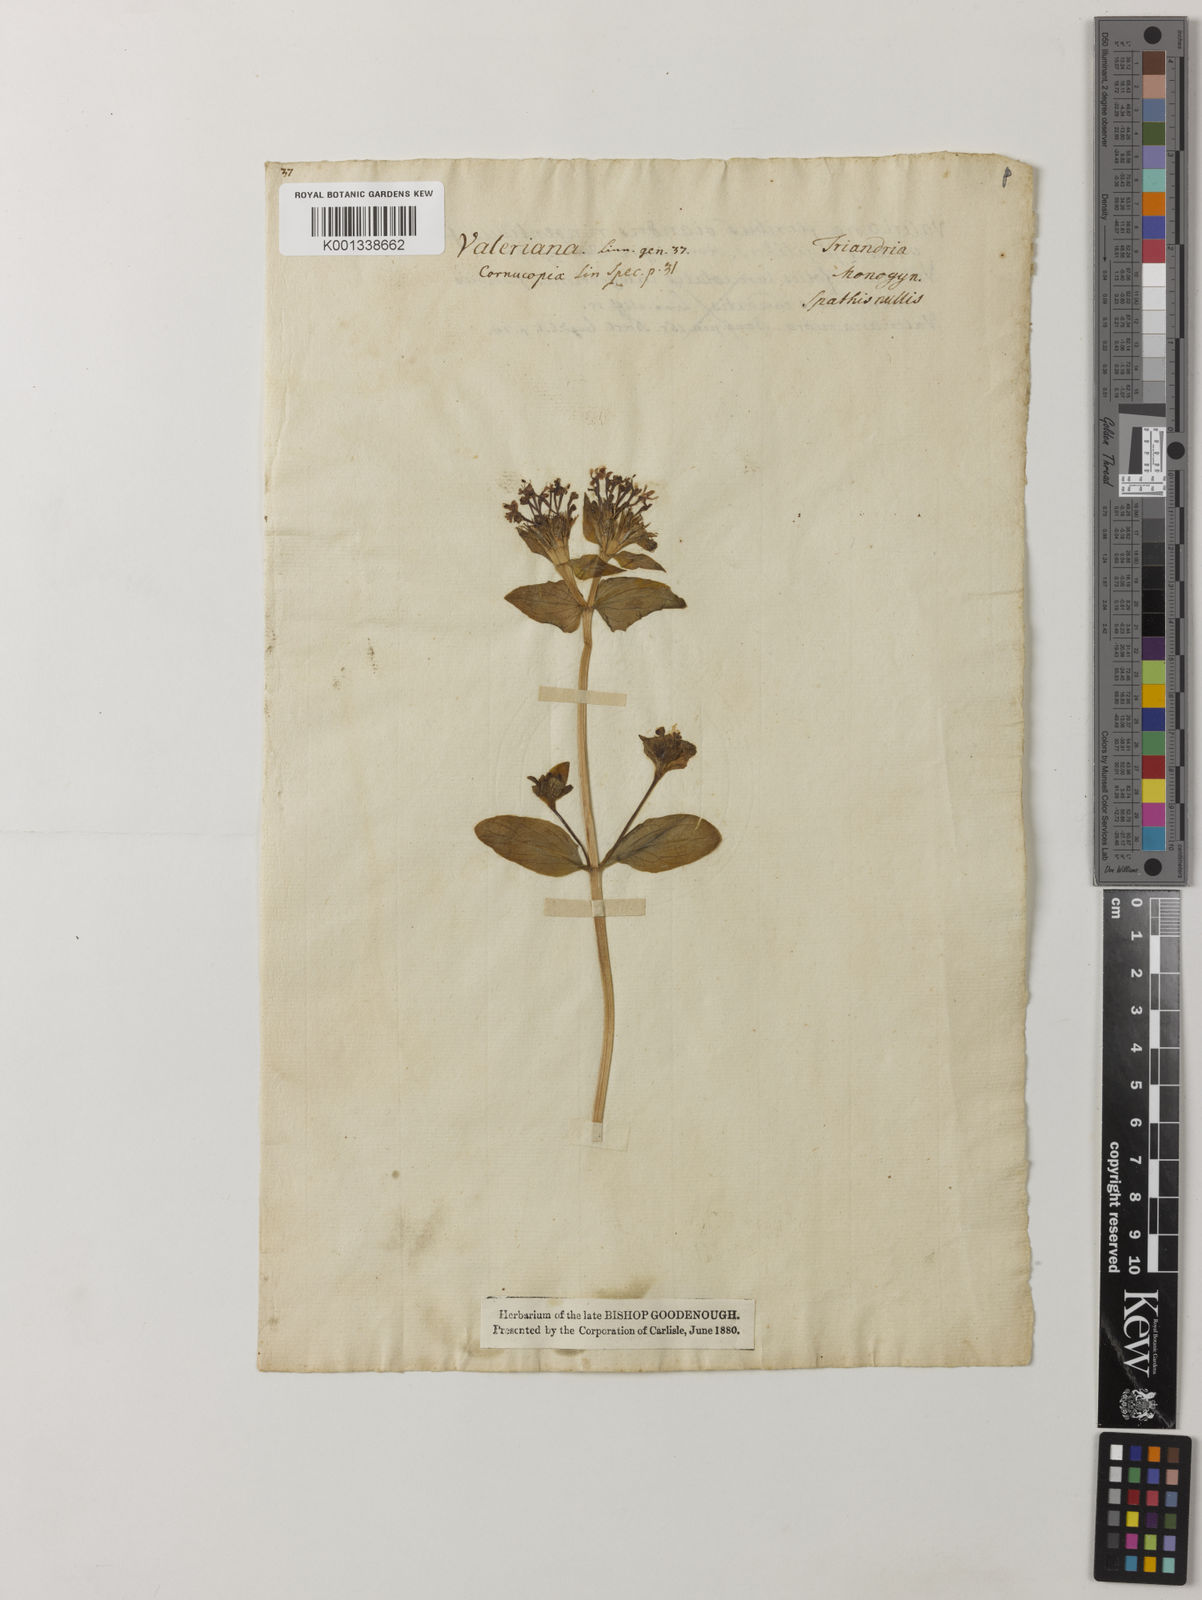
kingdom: Plantae
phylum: Tracheophyta
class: Magnoliopsida
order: Dipsacales
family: Caprifoliaceae
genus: Fedia
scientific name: Fedia cornucopiae
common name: Horn-of-plenty
